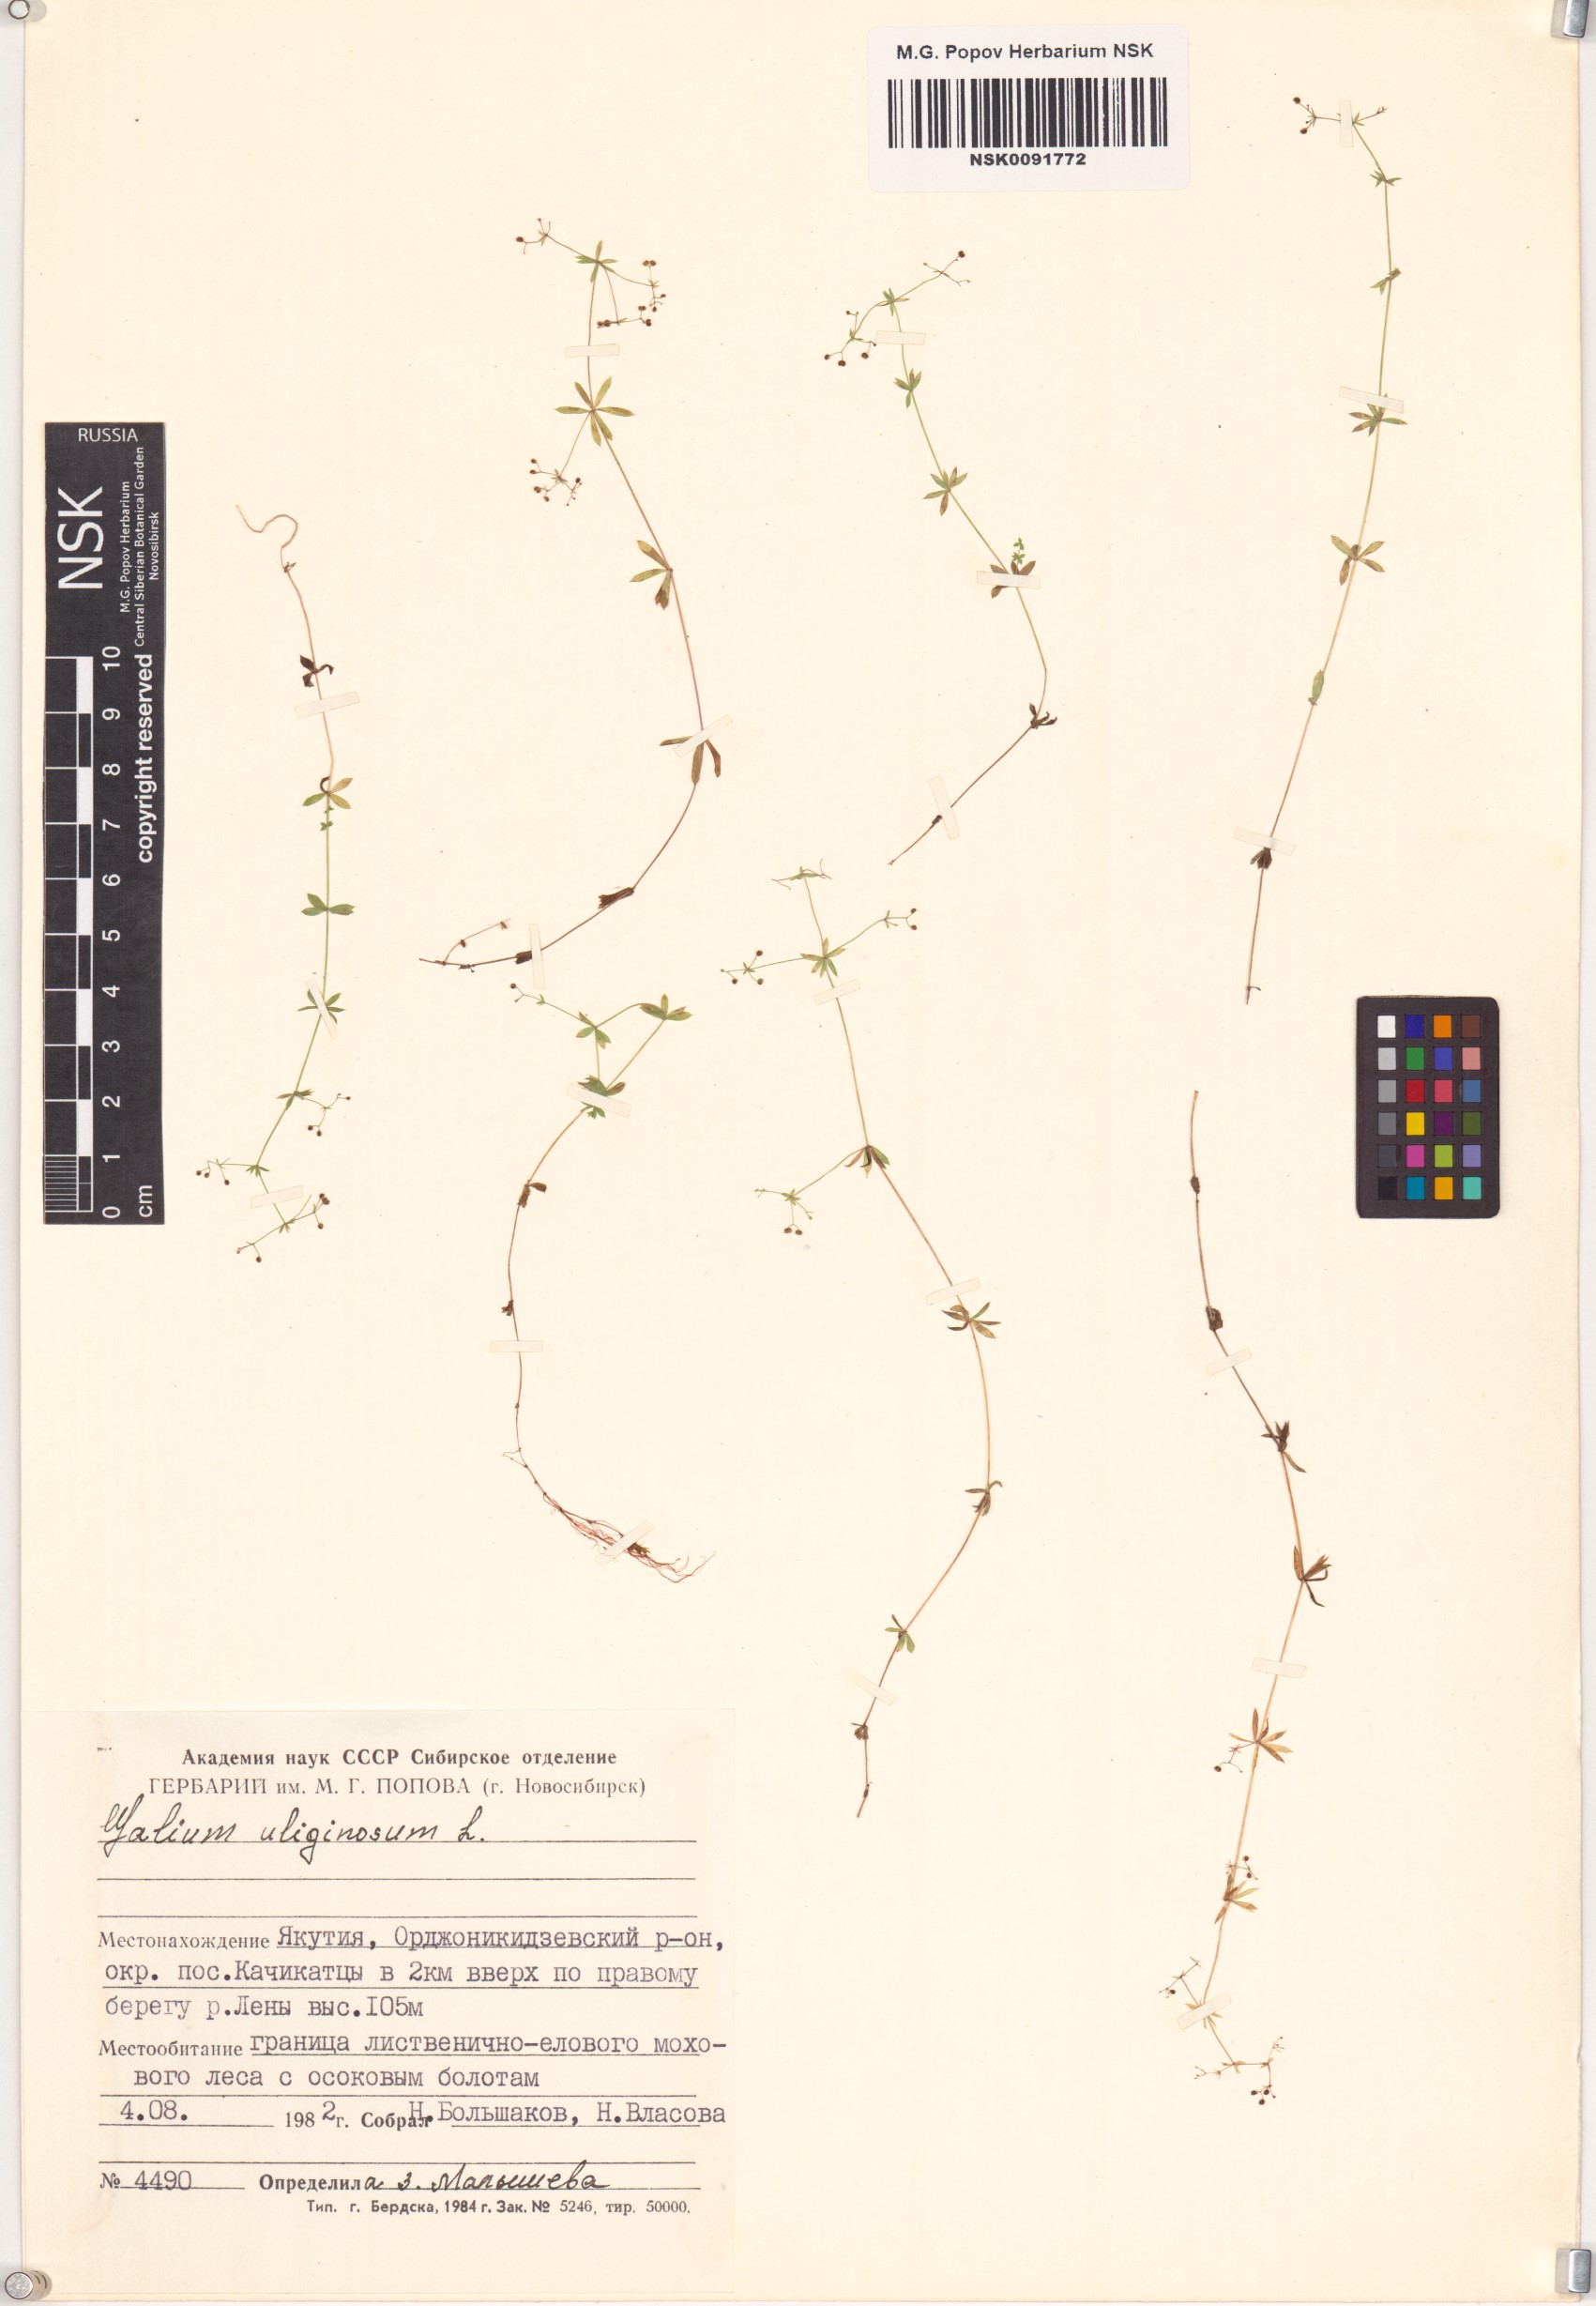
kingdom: Plantae
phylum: Tracheophyta
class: Magnoliopsida
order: Gentianales
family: Rubiaceae
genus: Galium
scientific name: Galium uliginosum
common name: Fen bedstraw
